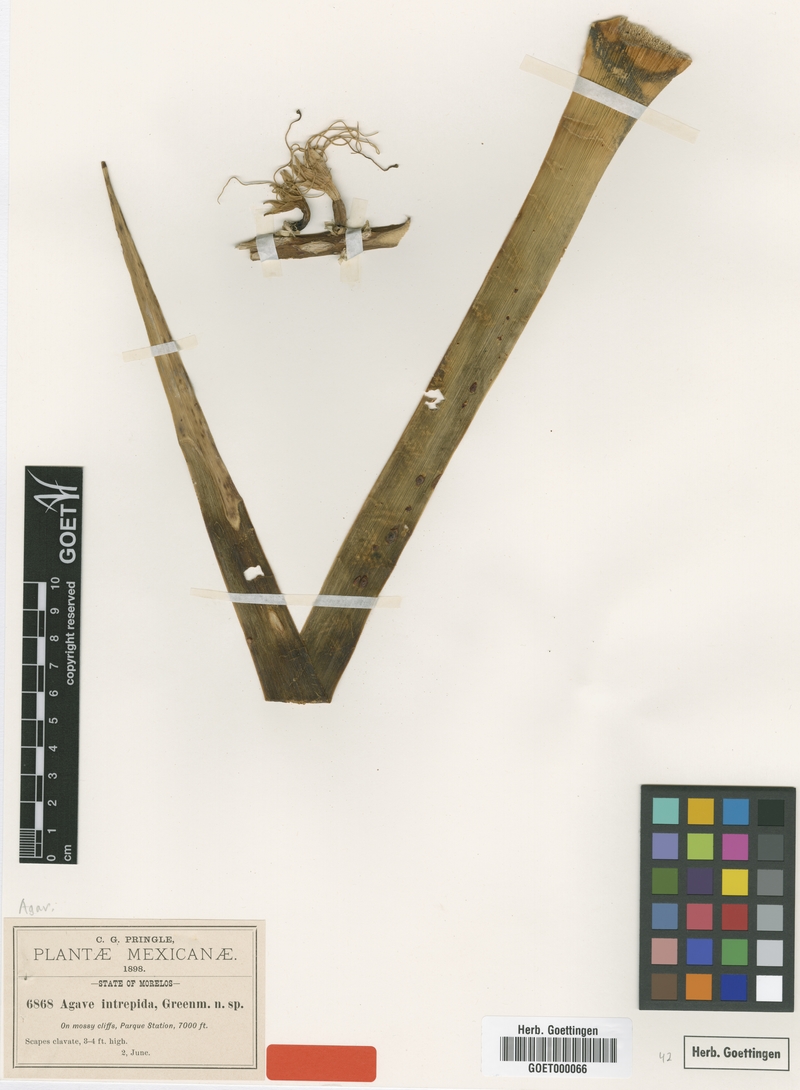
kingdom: Plantae
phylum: Tracheophyta
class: Liliopsida
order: Asparagales
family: Asparagaceae
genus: Agave
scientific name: Agave dealbata
